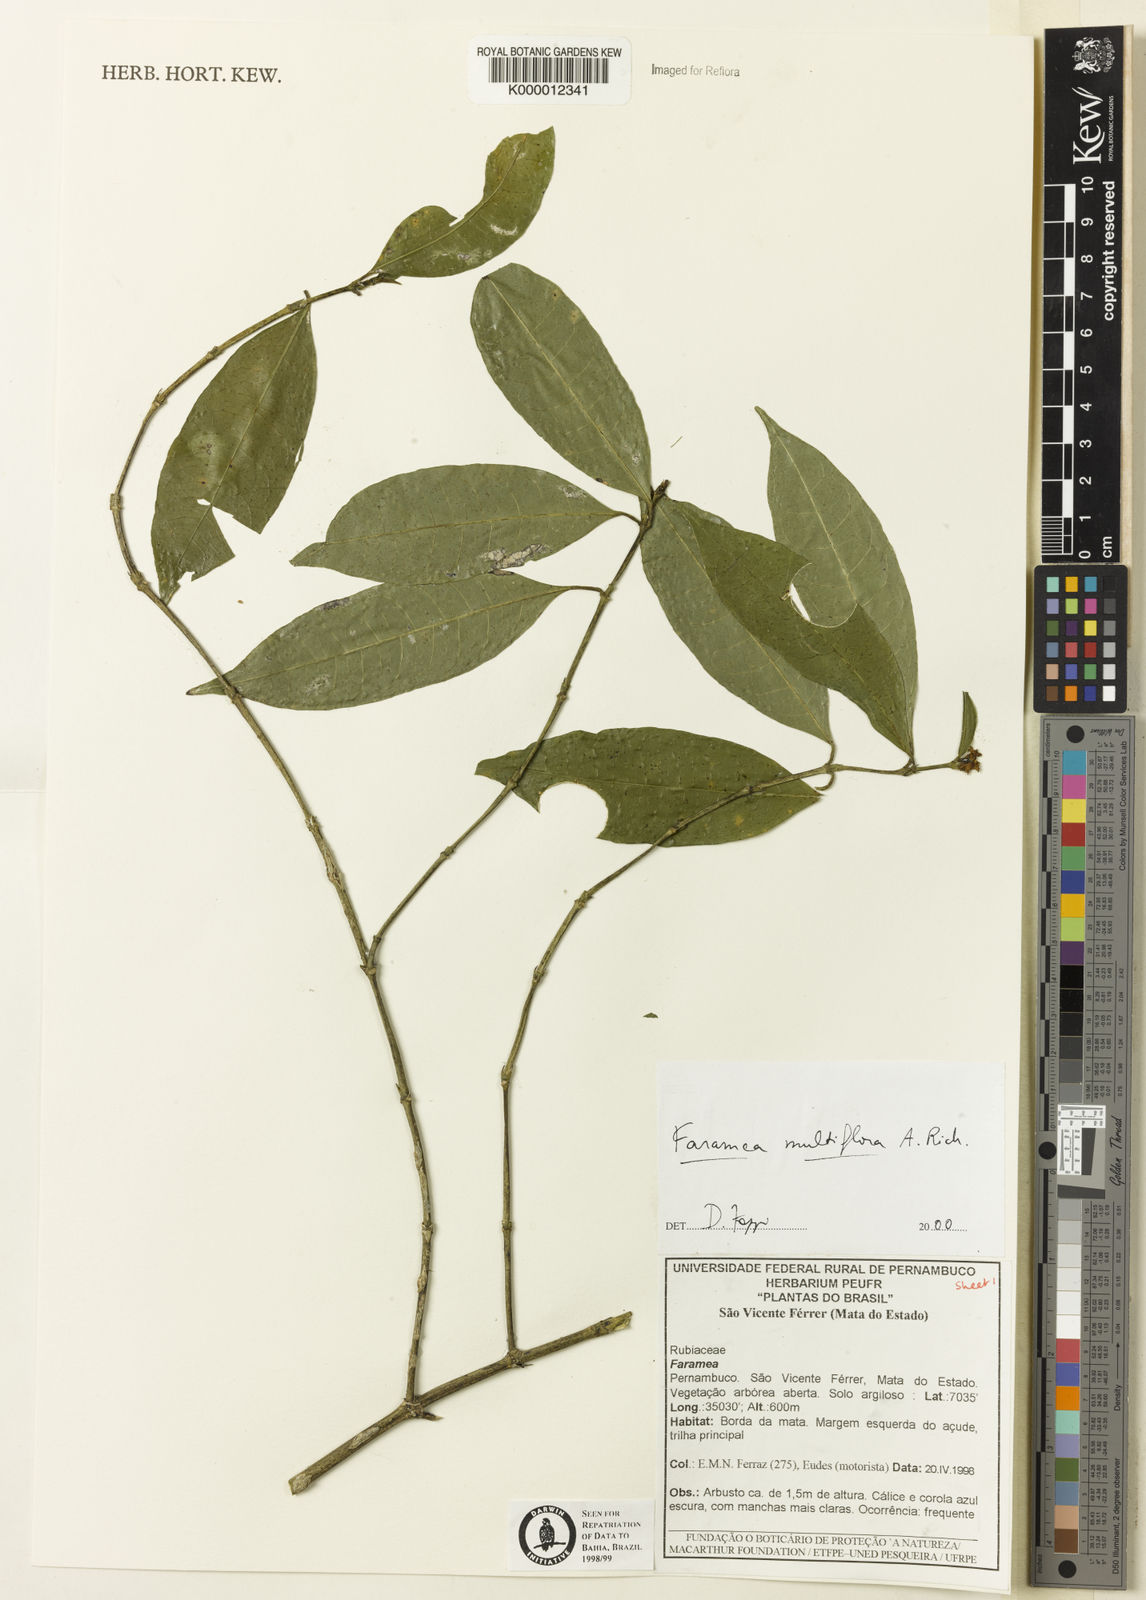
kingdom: Plantae
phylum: Tracheophyta
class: Magnoliopsida
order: Celastrales
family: Celastraceae
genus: Cheiloclinium
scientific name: Cheiloclinium hippocrateoides
